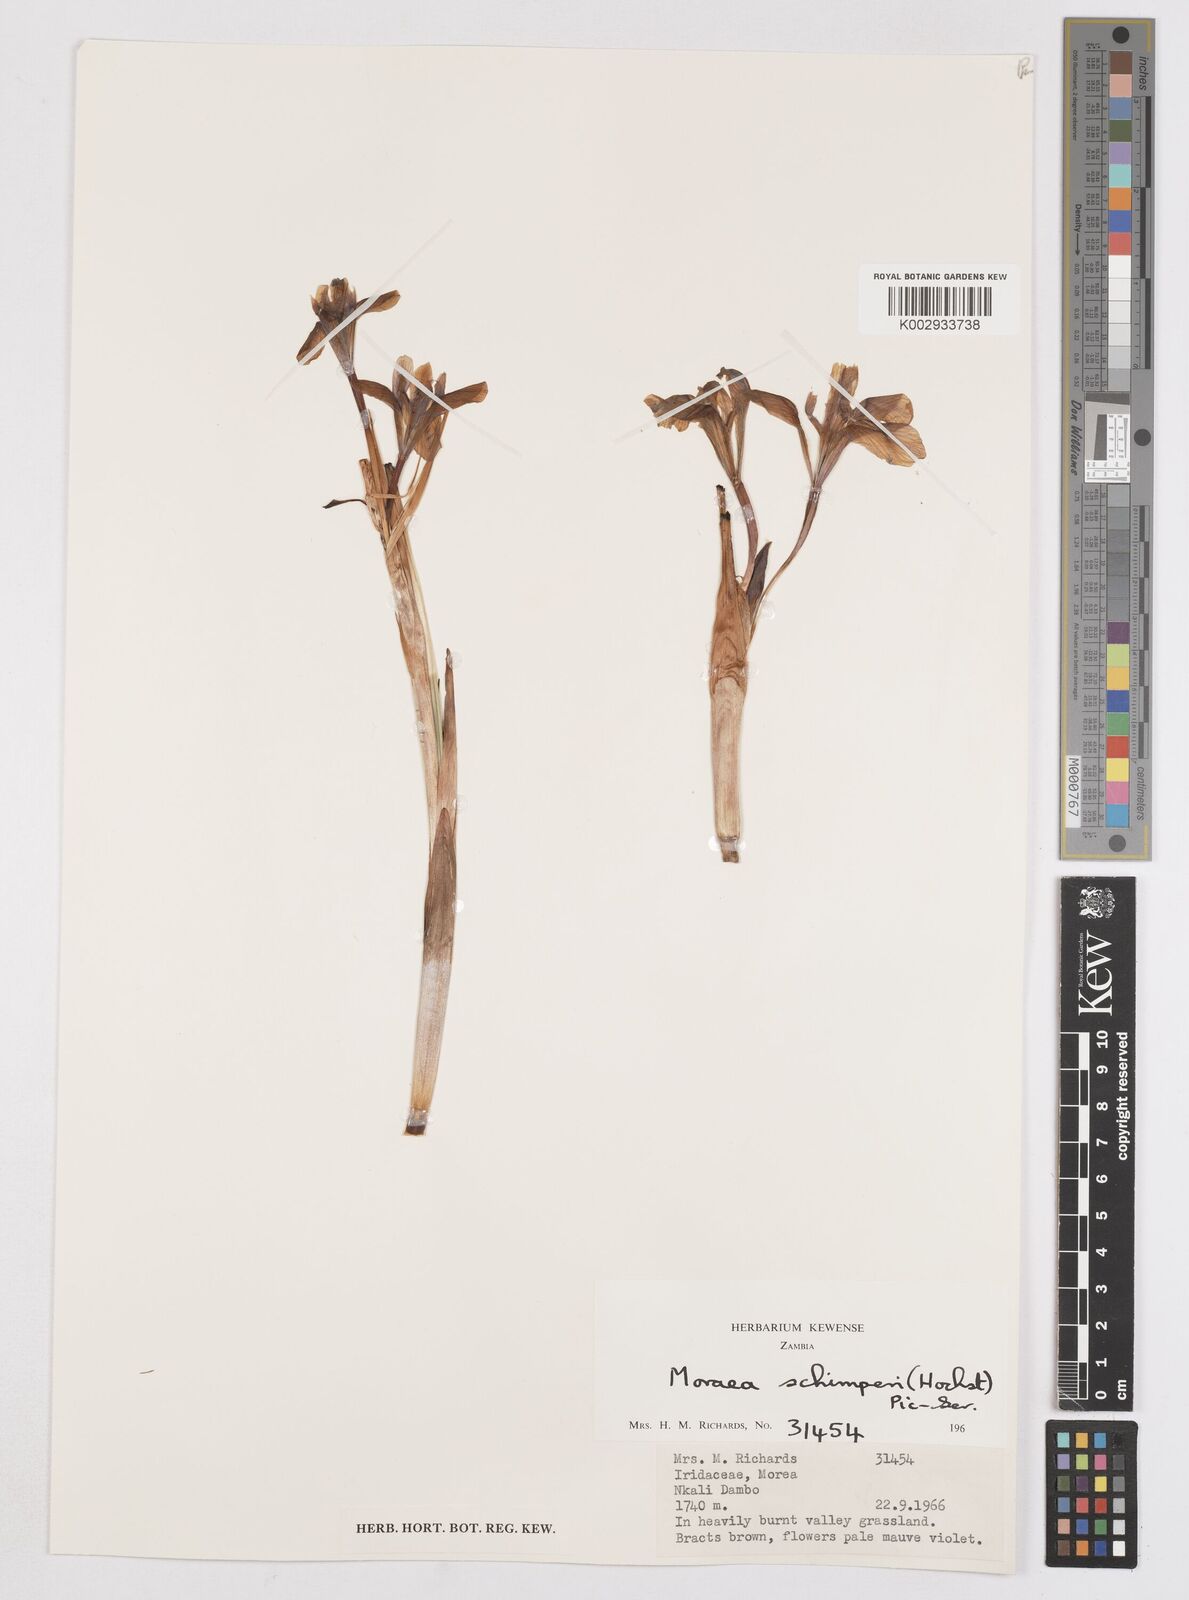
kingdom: Plantae
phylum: Tracheophyta
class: Liliopsida
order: Asparagales
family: Iridaceae
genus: Moraea
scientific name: Moraea schimperi
